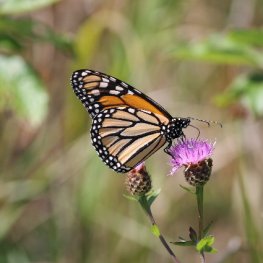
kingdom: Animalia
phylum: Arthropoda
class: Insecta
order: Lepidoptera
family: Nymphalidae
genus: Danaus
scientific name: Danaus plexippus
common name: Monarch
